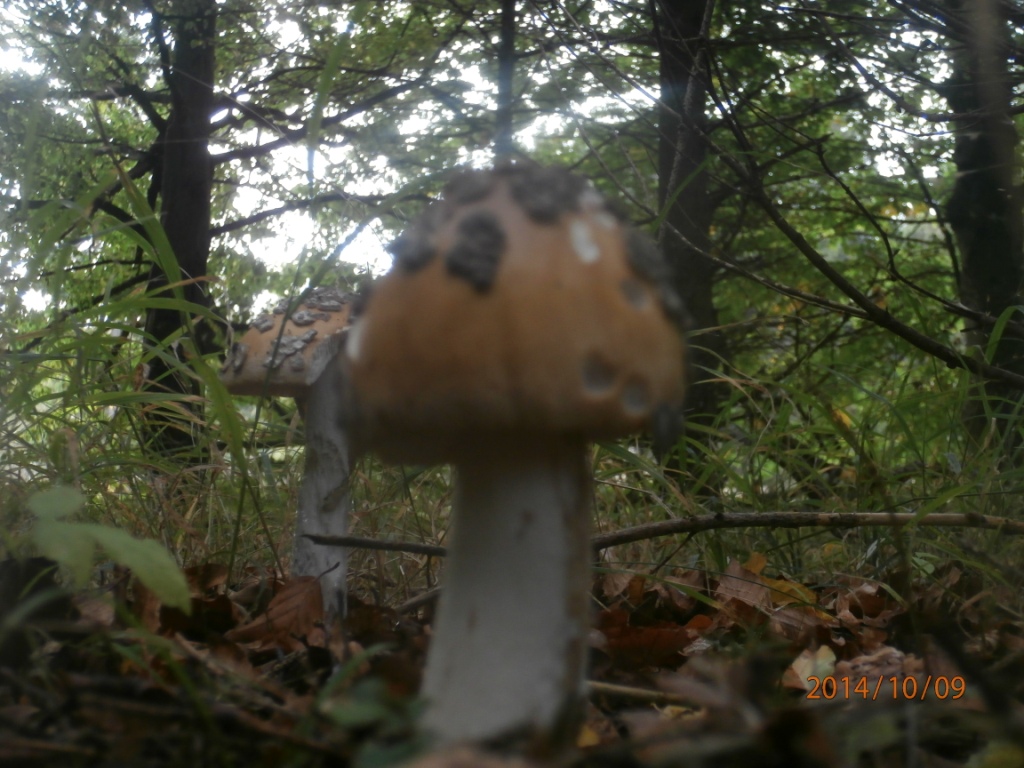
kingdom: Fungi
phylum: Basidiomycota
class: Agaricomycetes
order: Agaricales
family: Amanitaceae
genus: Amanita
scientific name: Amanita ceciliae
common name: stor kam-fluesvamp
